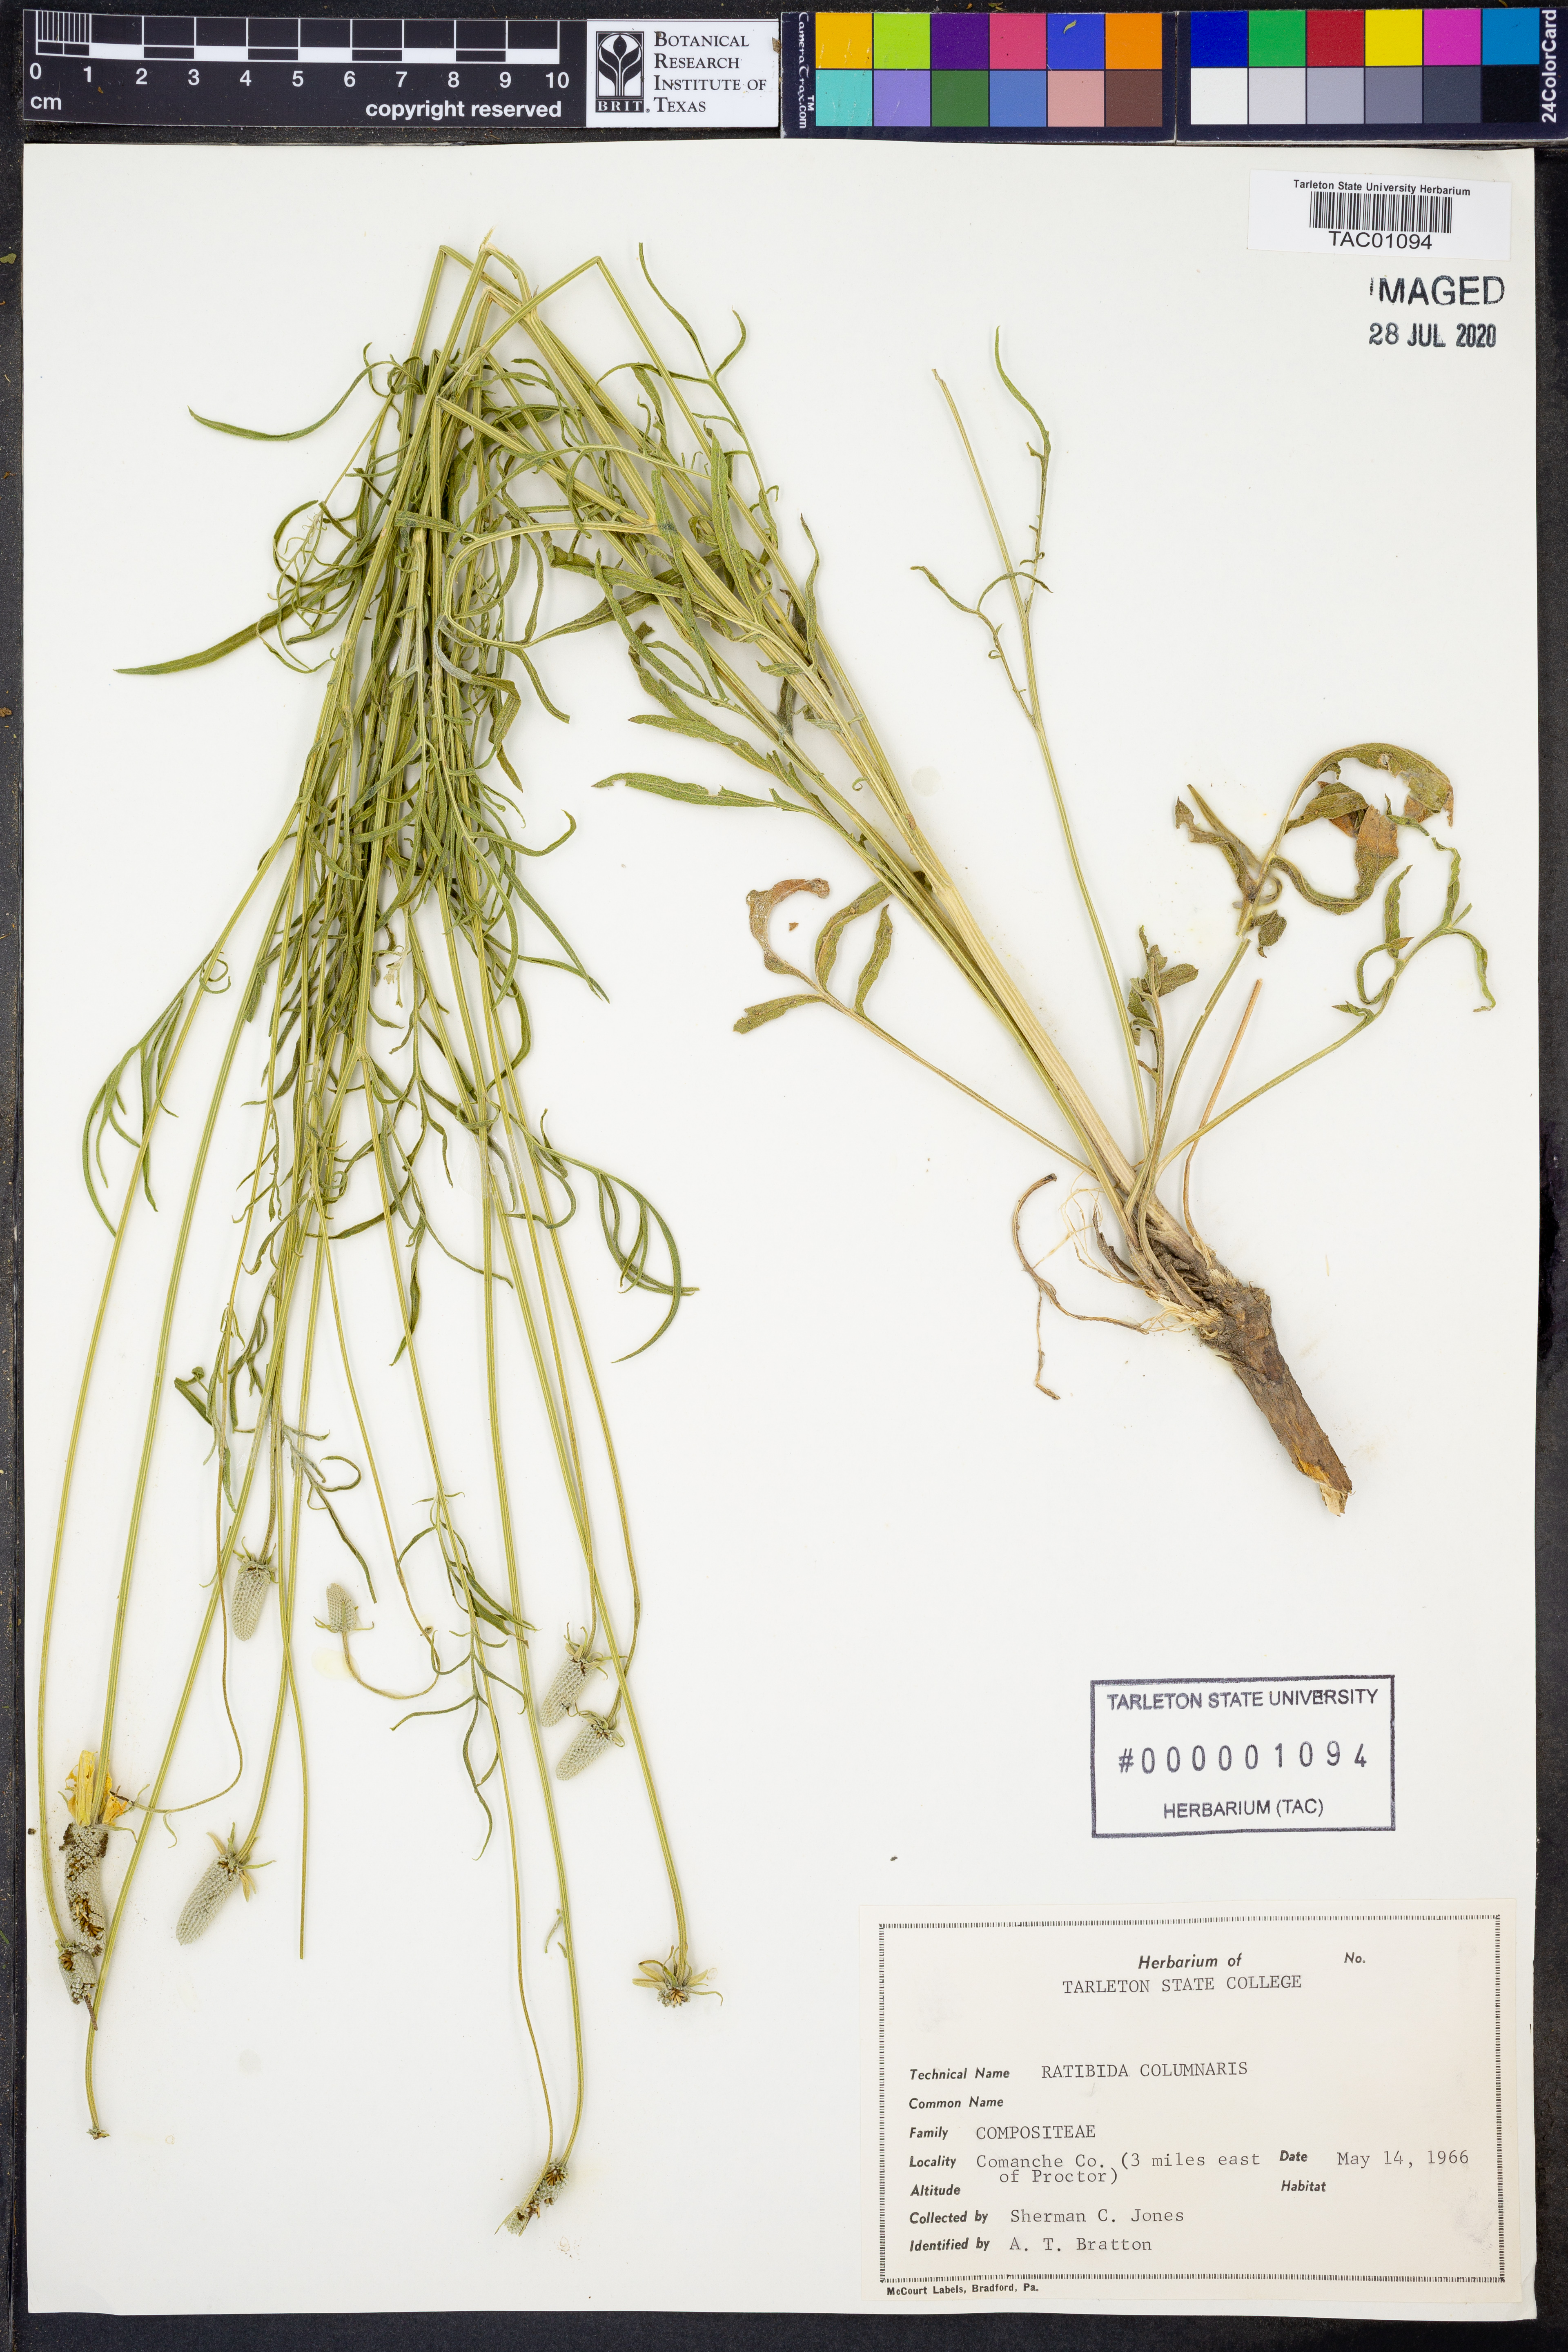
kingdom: Plantae
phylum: Tracheophyta
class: Magnoliopsida
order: Asterales
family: Asteraceae
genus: Ratibida
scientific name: Ratibida columnifera
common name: Prairie coneflower
